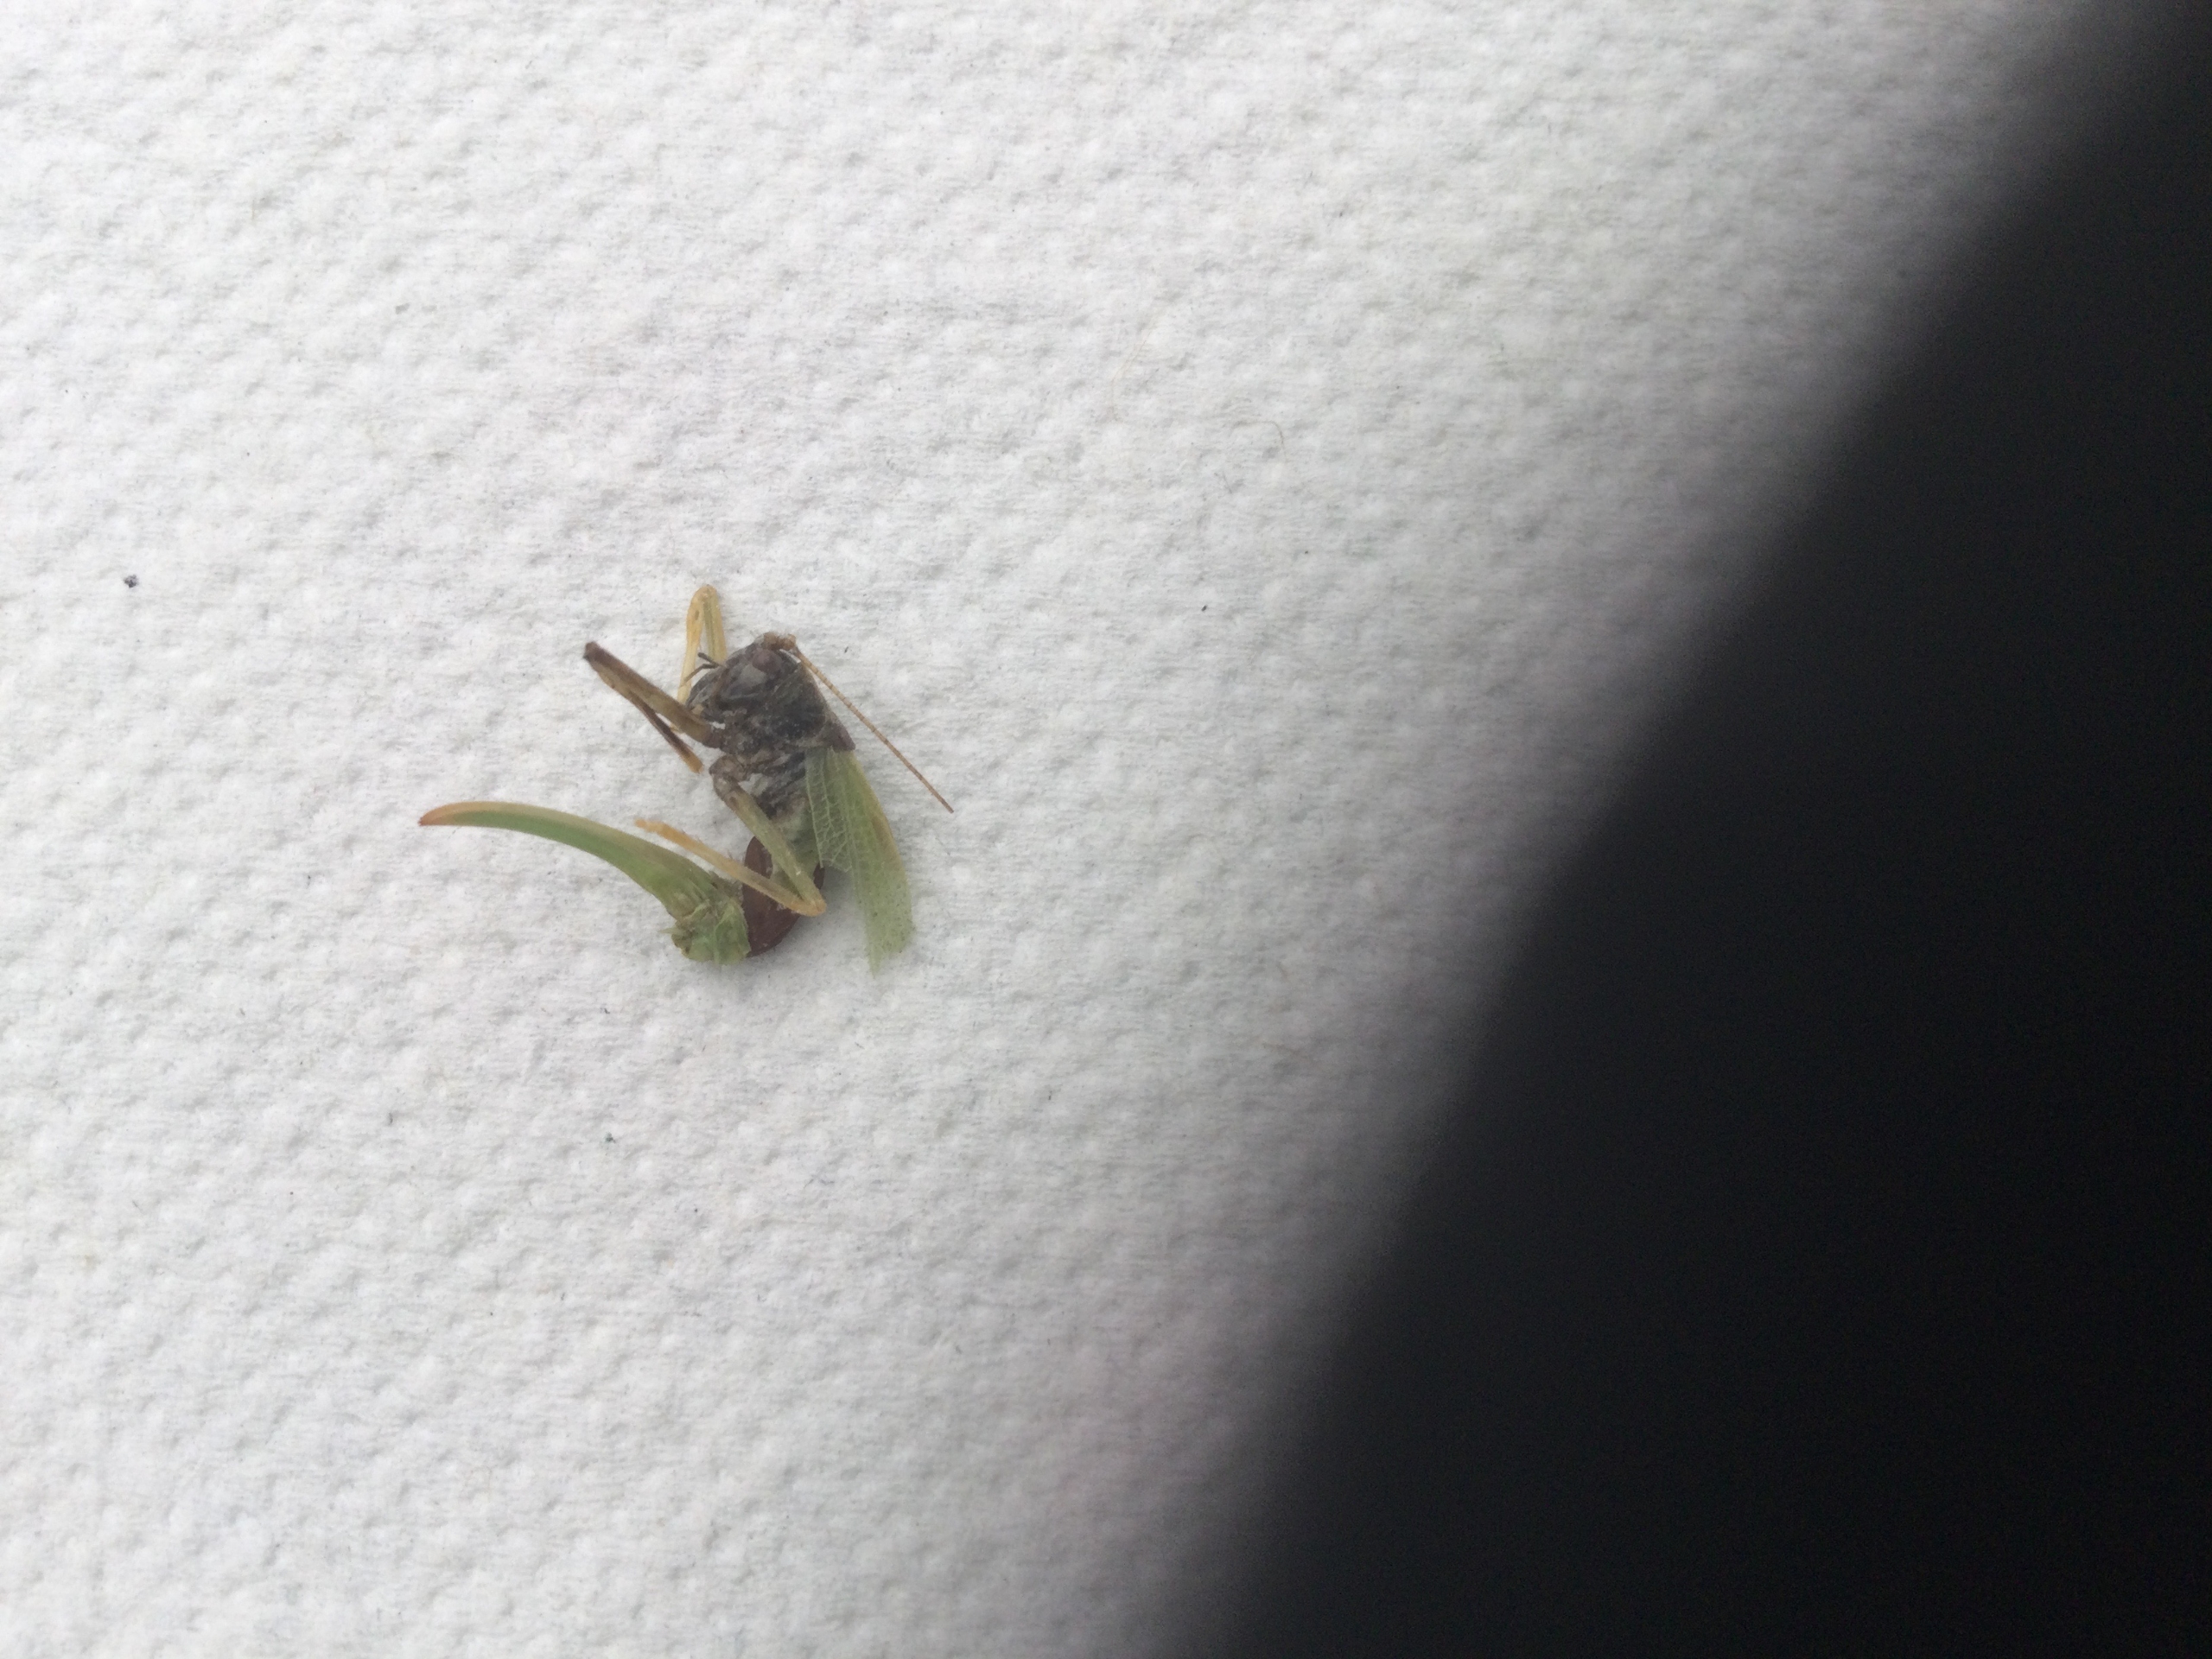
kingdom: Animalia
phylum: Arthropoda
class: Insecta
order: Orthoptera
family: Tettigoniidae
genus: Meconema
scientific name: Meconema thalassinum
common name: Egegræshoppe
